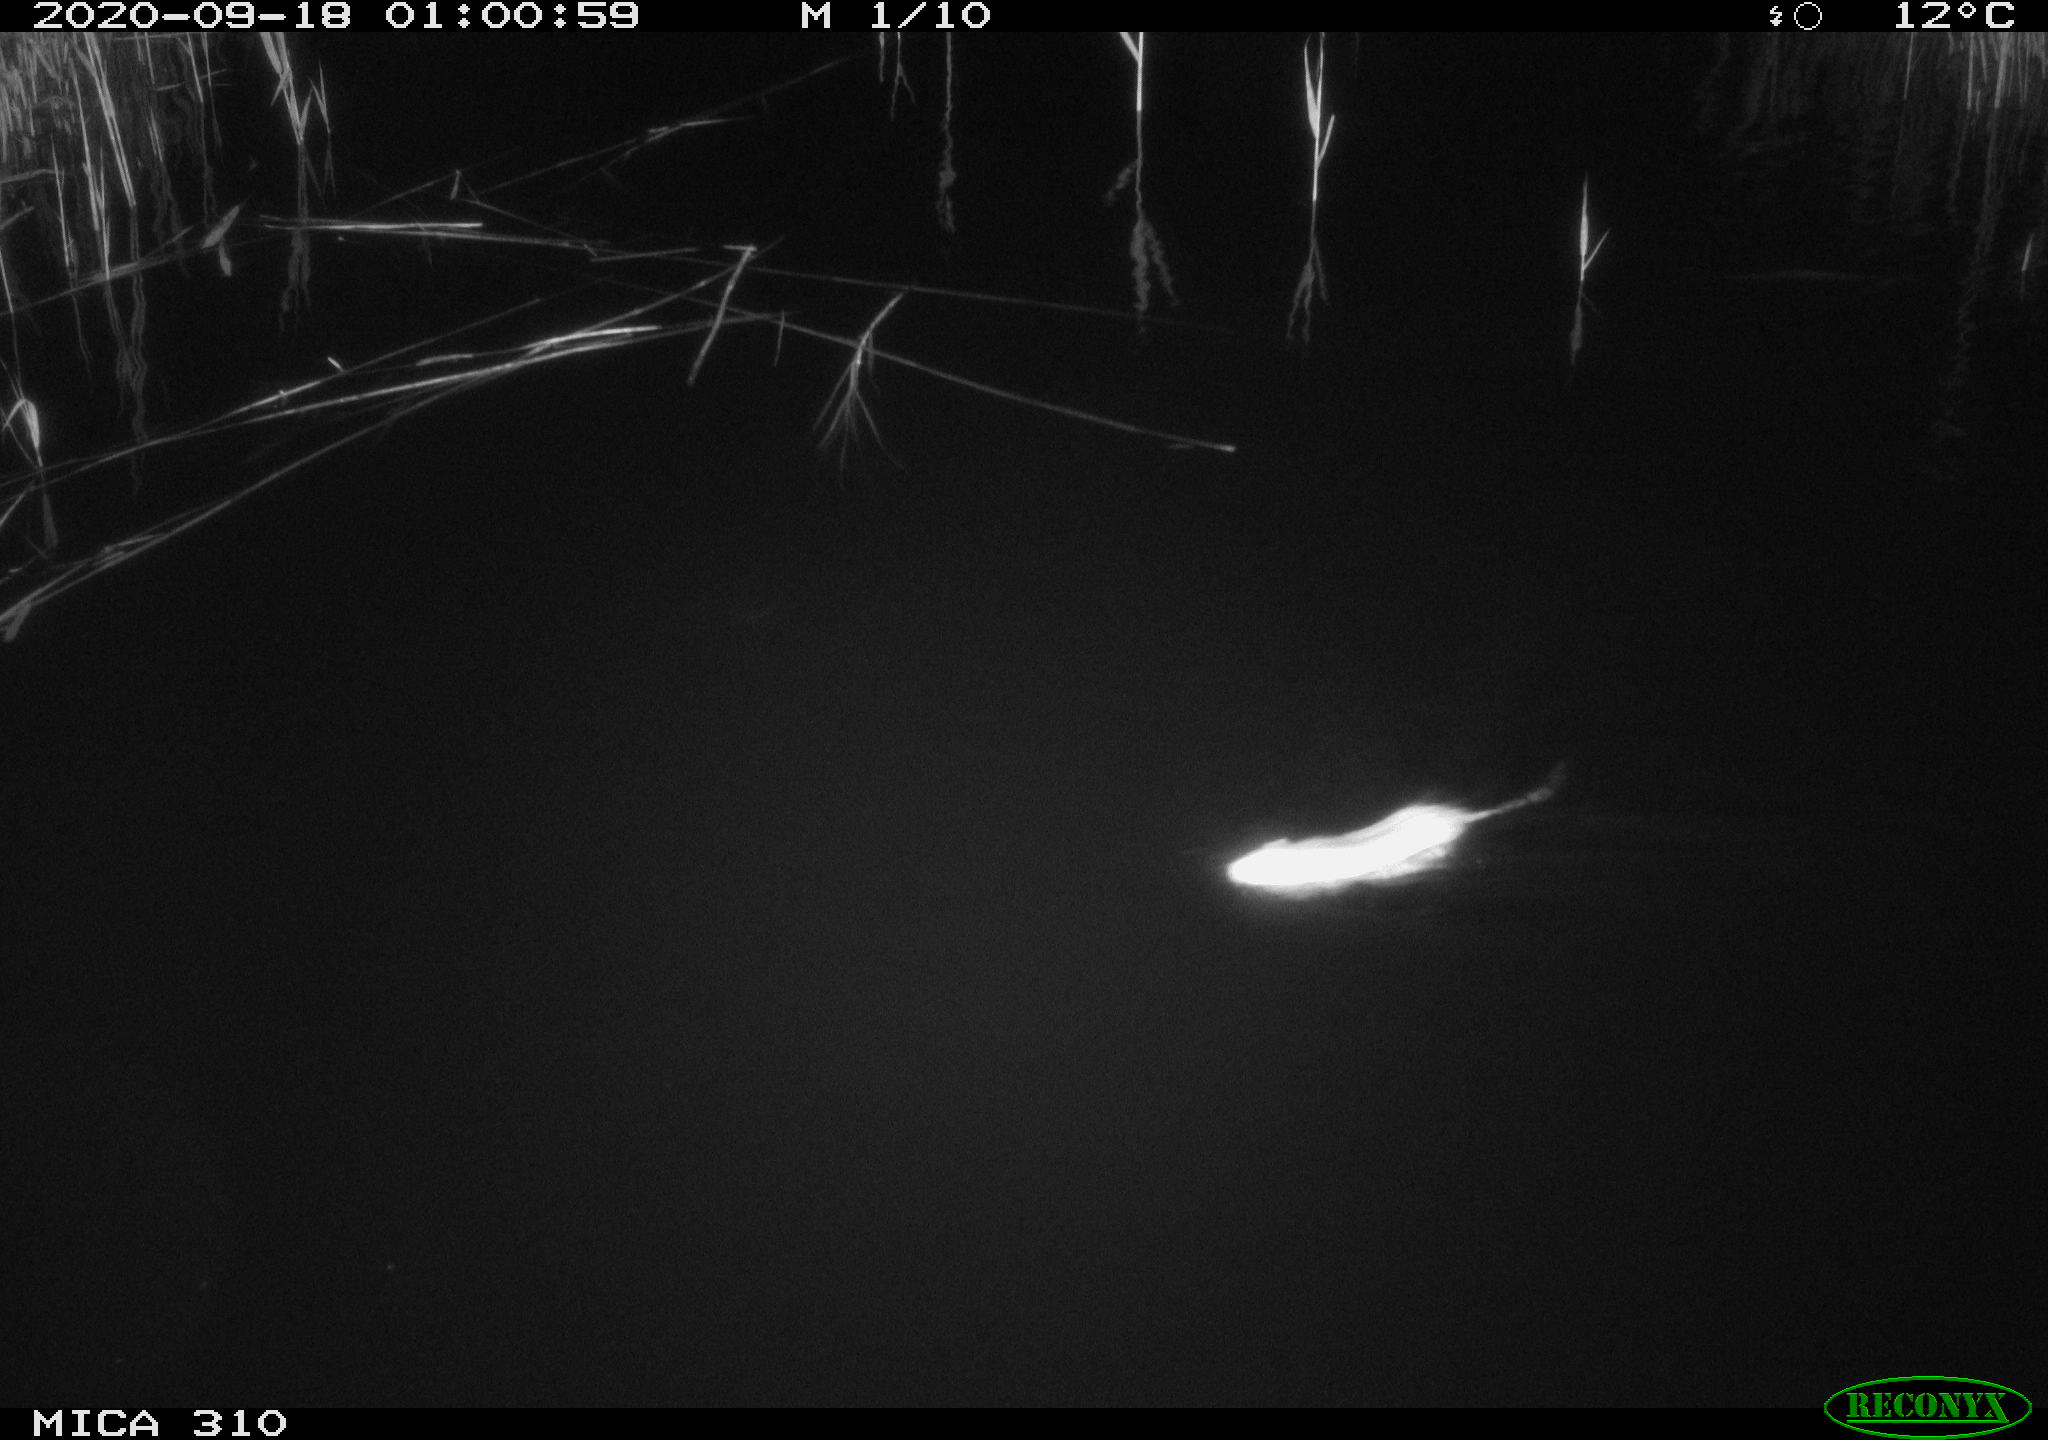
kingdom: Animalia
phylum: Chordata
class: Mammalia
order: Rodentia
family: Muridae
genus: Rattus
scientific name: Rattus norvegicus
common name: Brown rat
